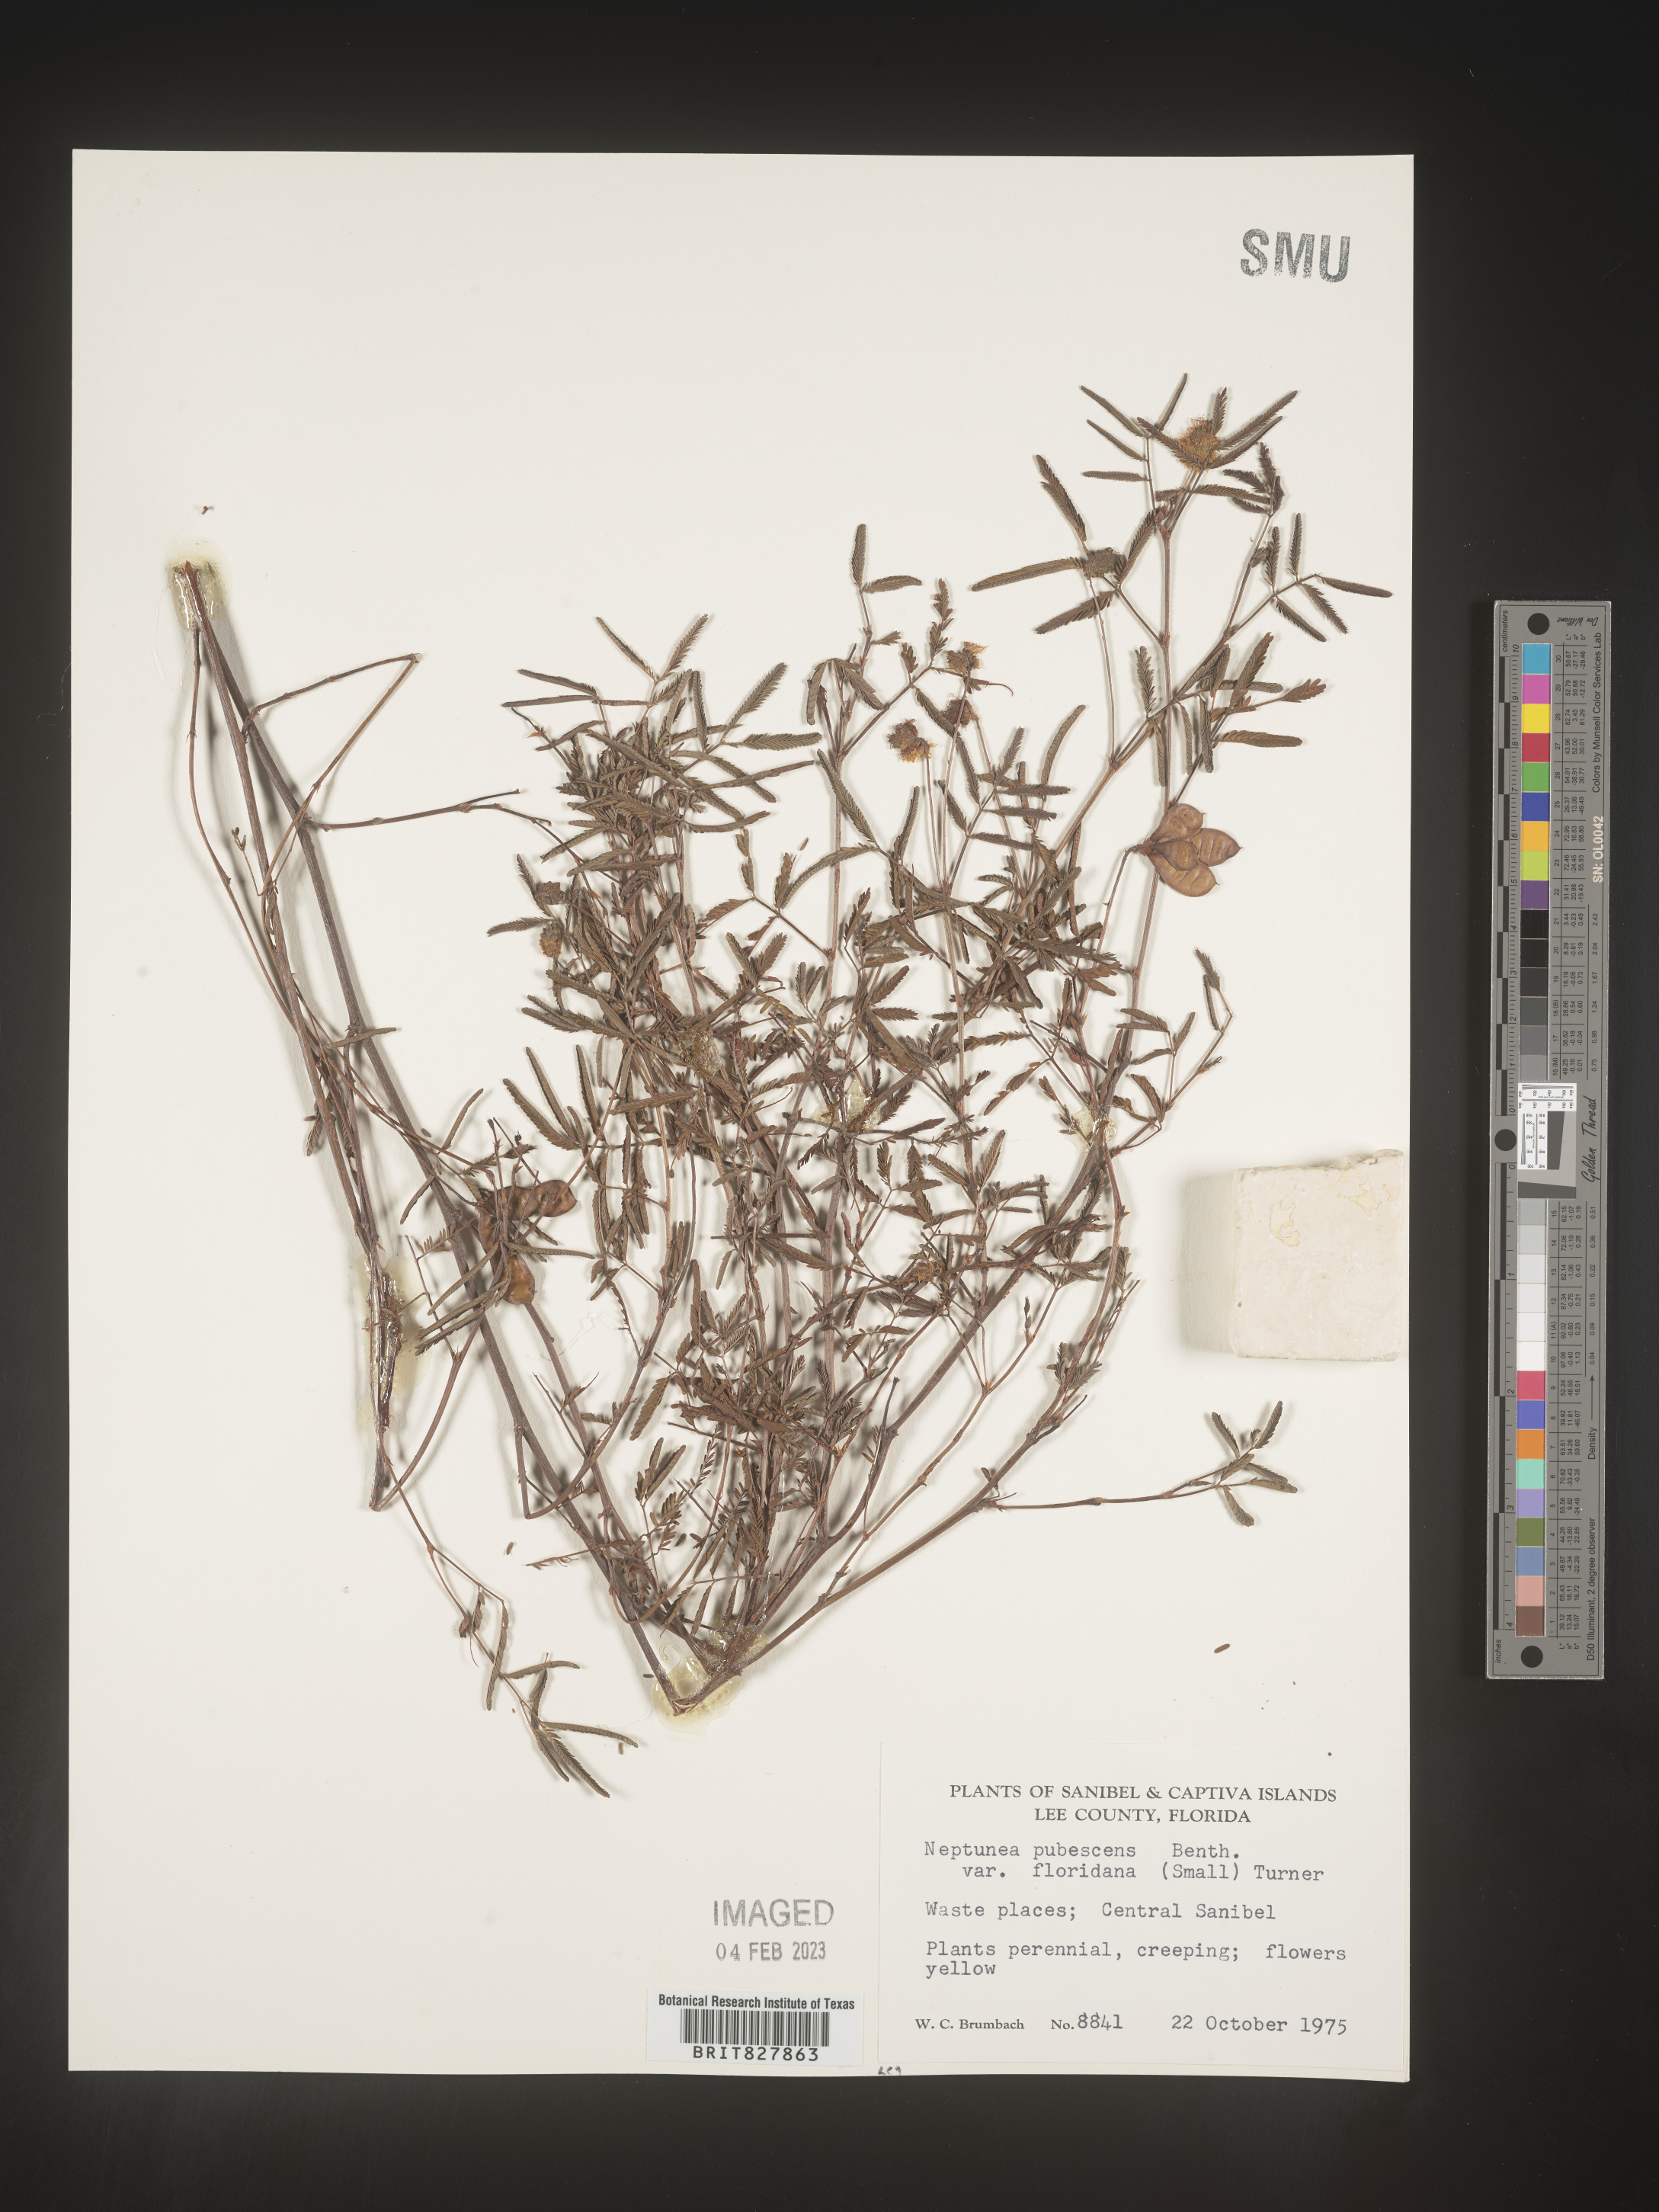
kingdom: Plantae
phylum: Tracheophyta
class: Magnoliopsida
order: Fabales
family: Fabaceae
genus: Neptunia
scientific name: Neptunia pubescens
